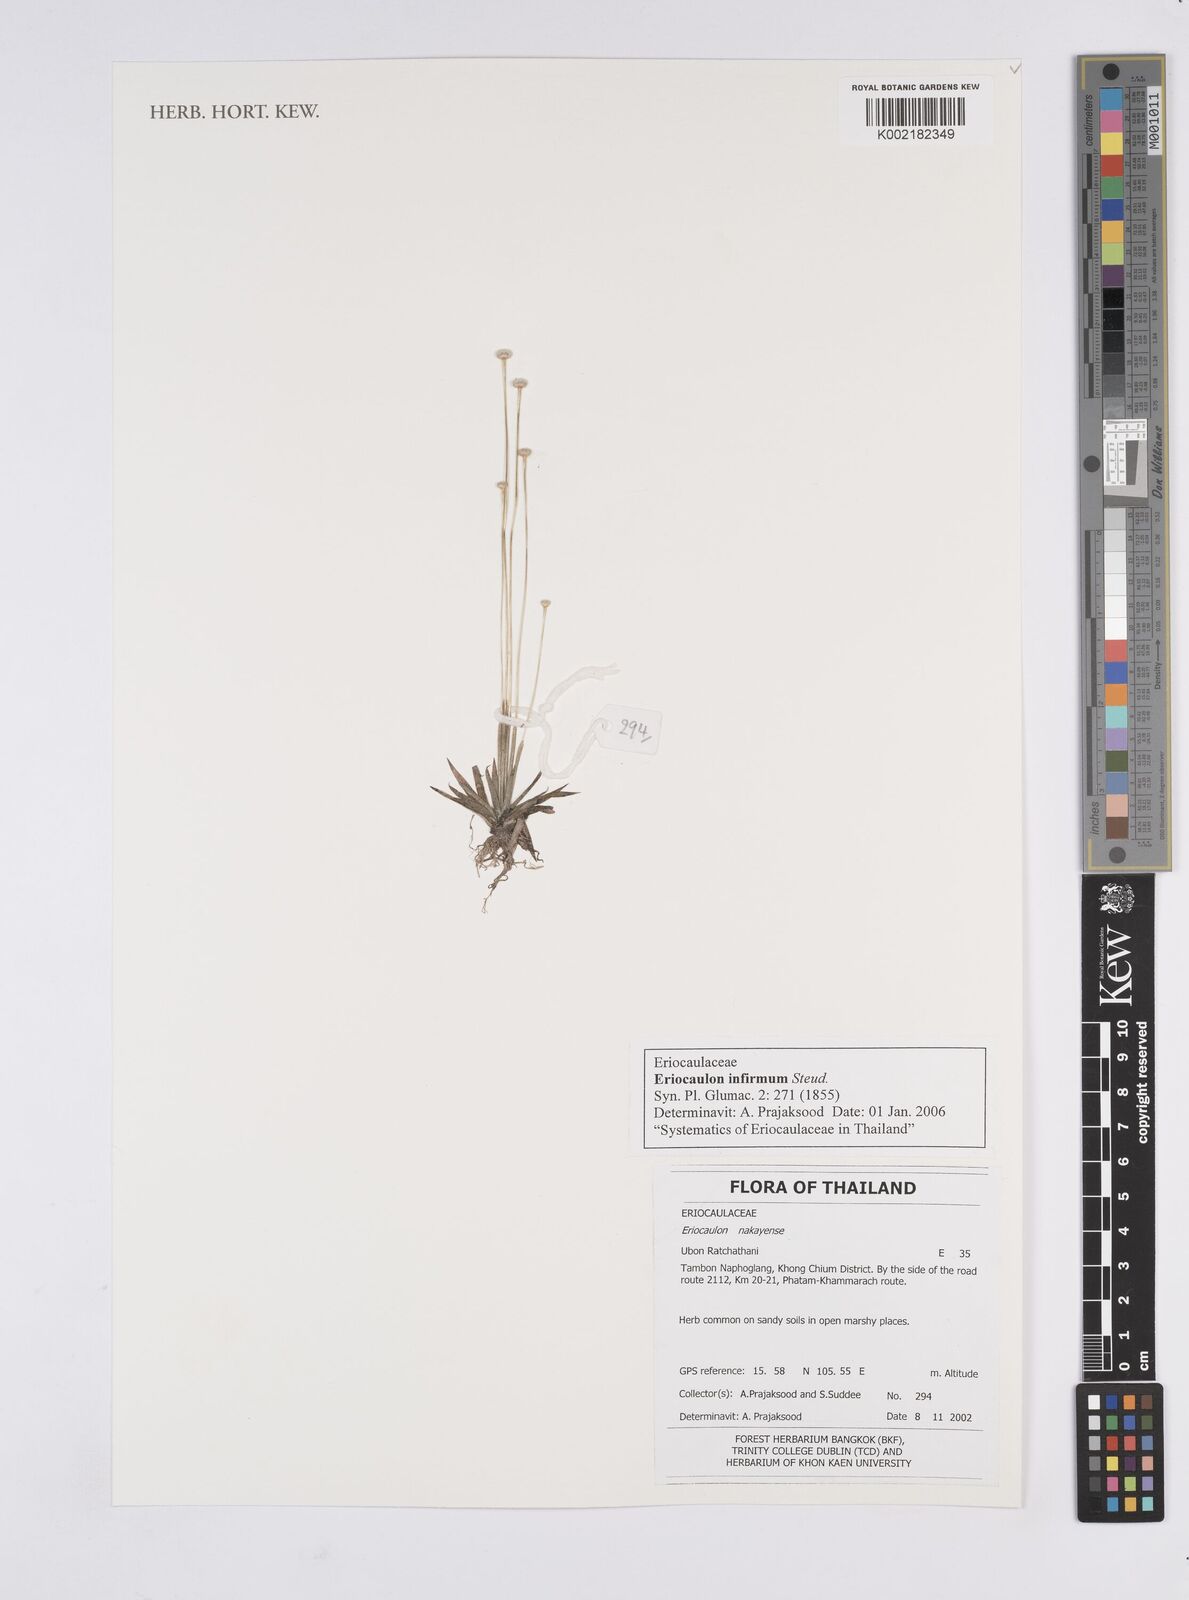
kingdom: Plantae
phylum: Tracheophyta
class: Liliopsida
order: Poales
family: Eriocaulaceae
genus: Eriocaulon
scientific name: Eriocaulon infirmum
